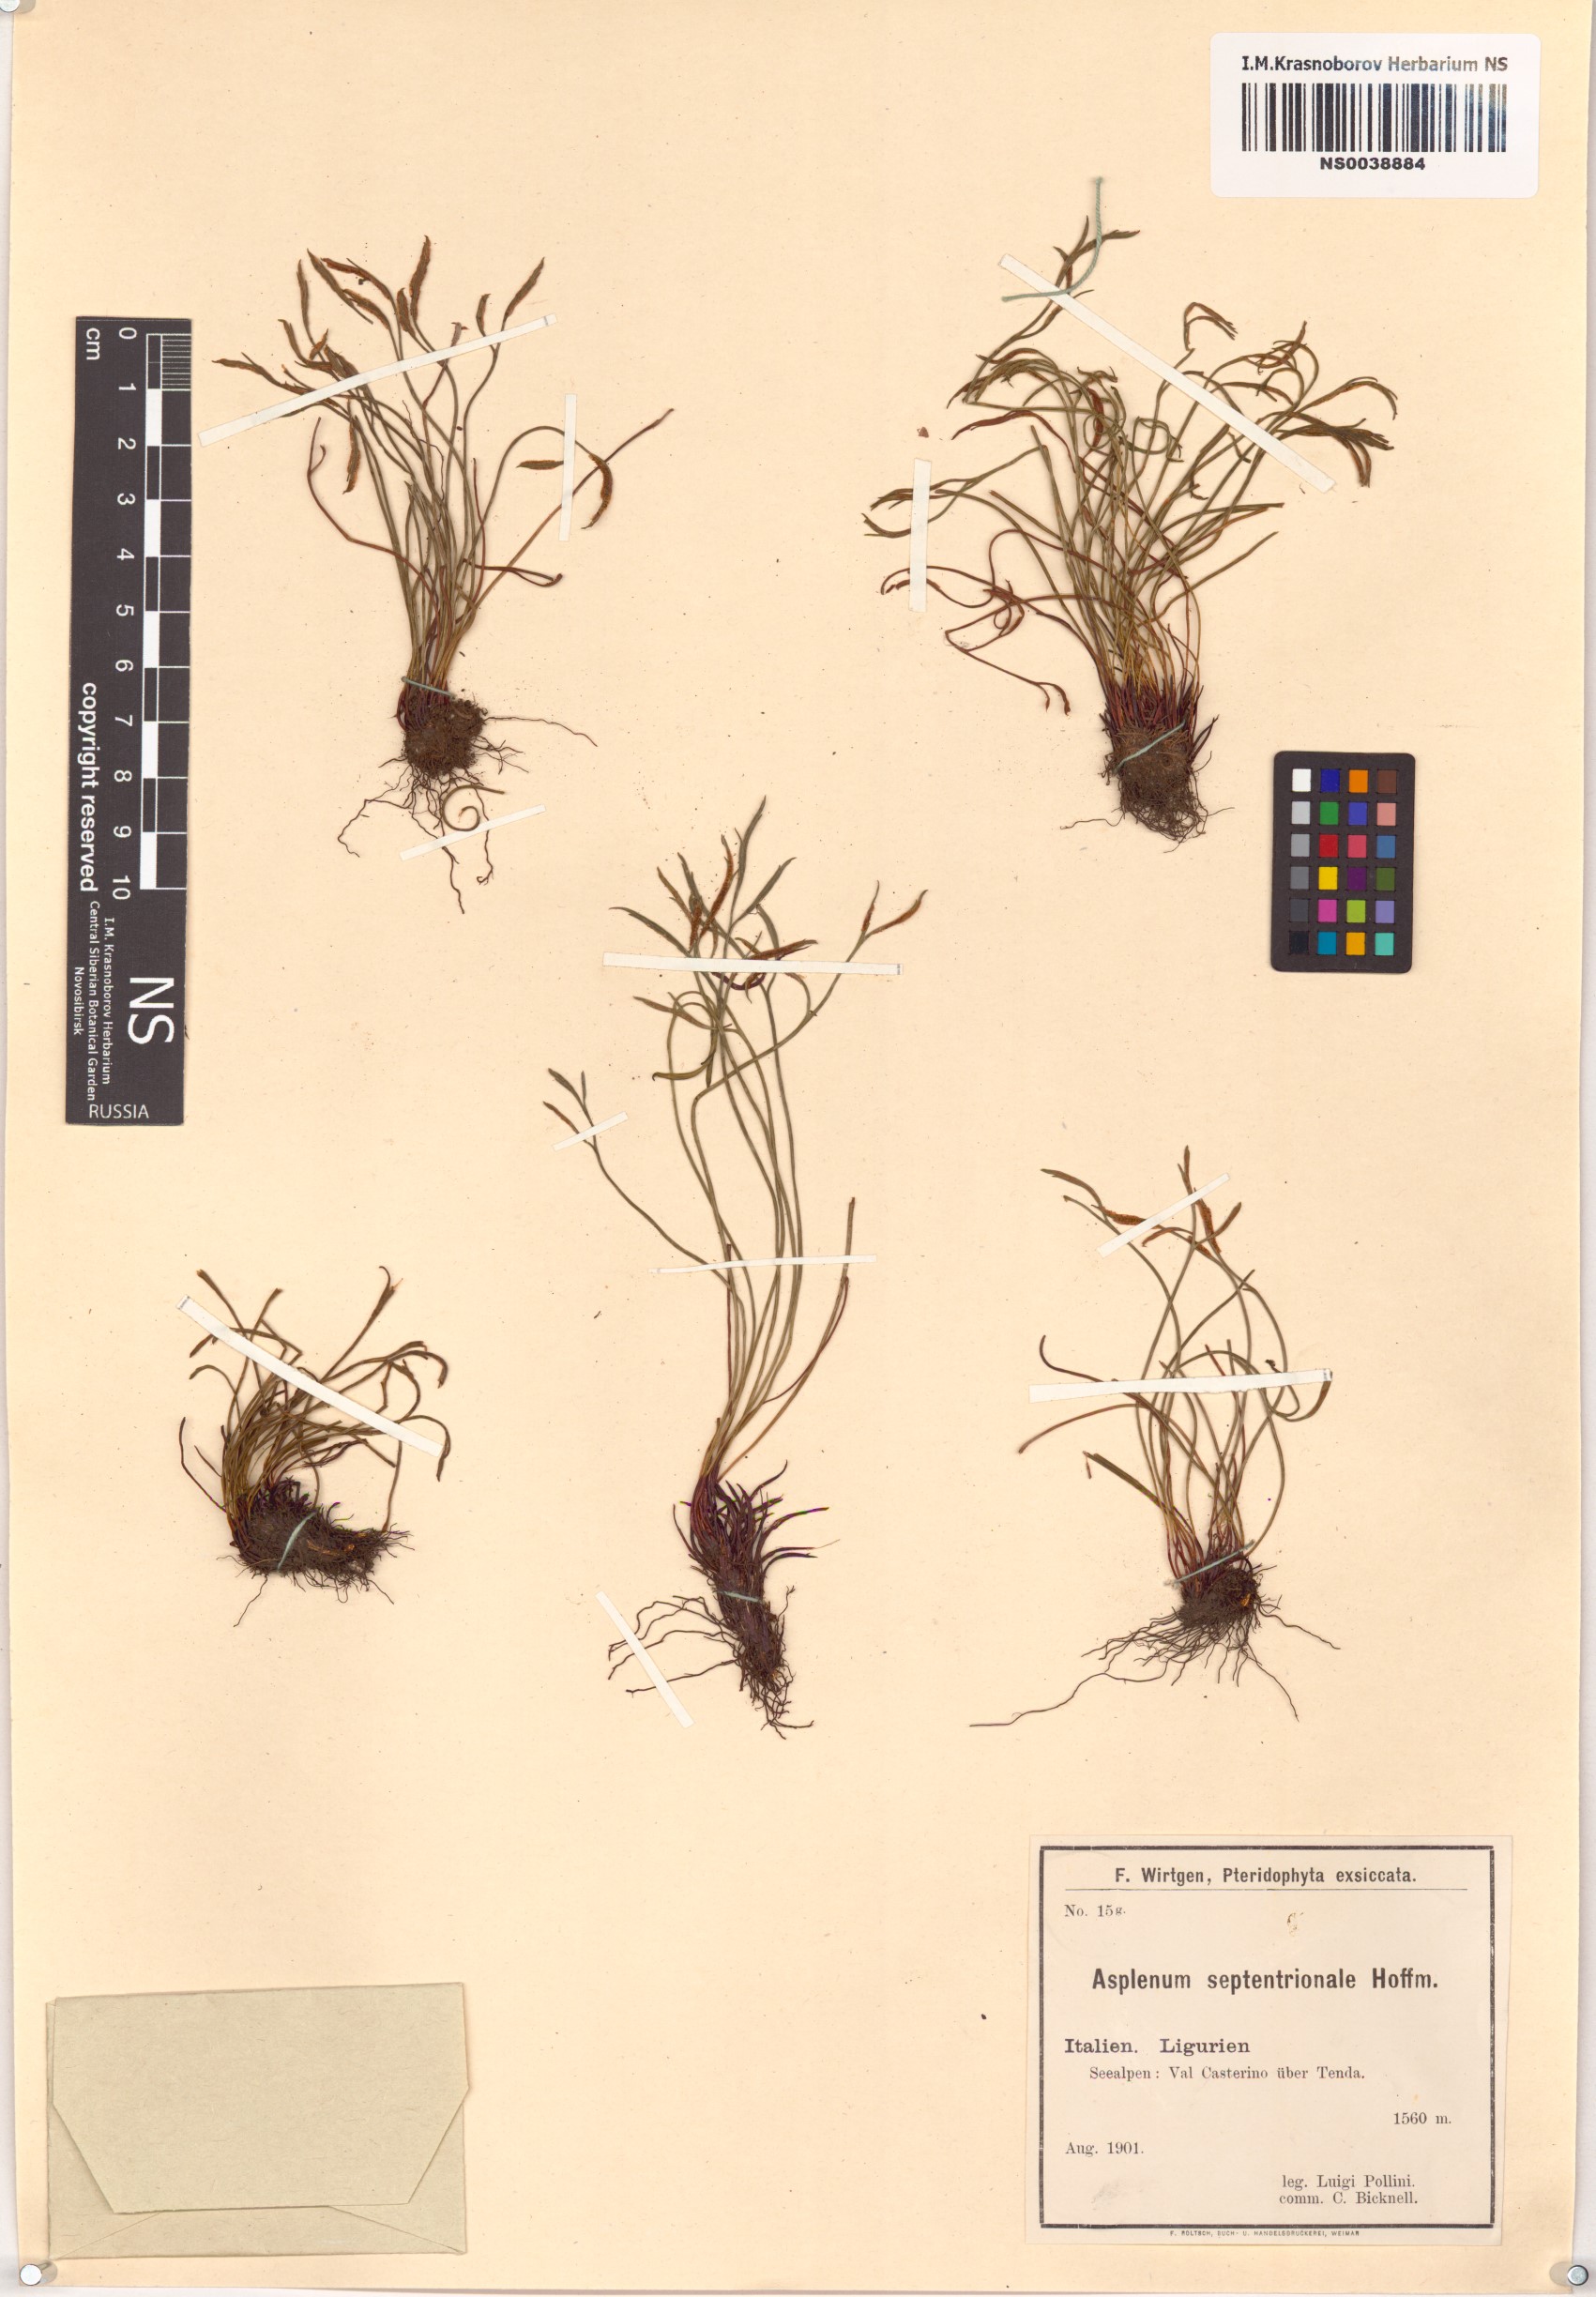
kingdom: Plantae
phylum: Tracheophyta
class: Polypodiopsida
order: Polypodiales
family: Aspleniaceae
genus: Asplenium
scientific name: Asplenium septentrionale
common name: Forked spleenwort
